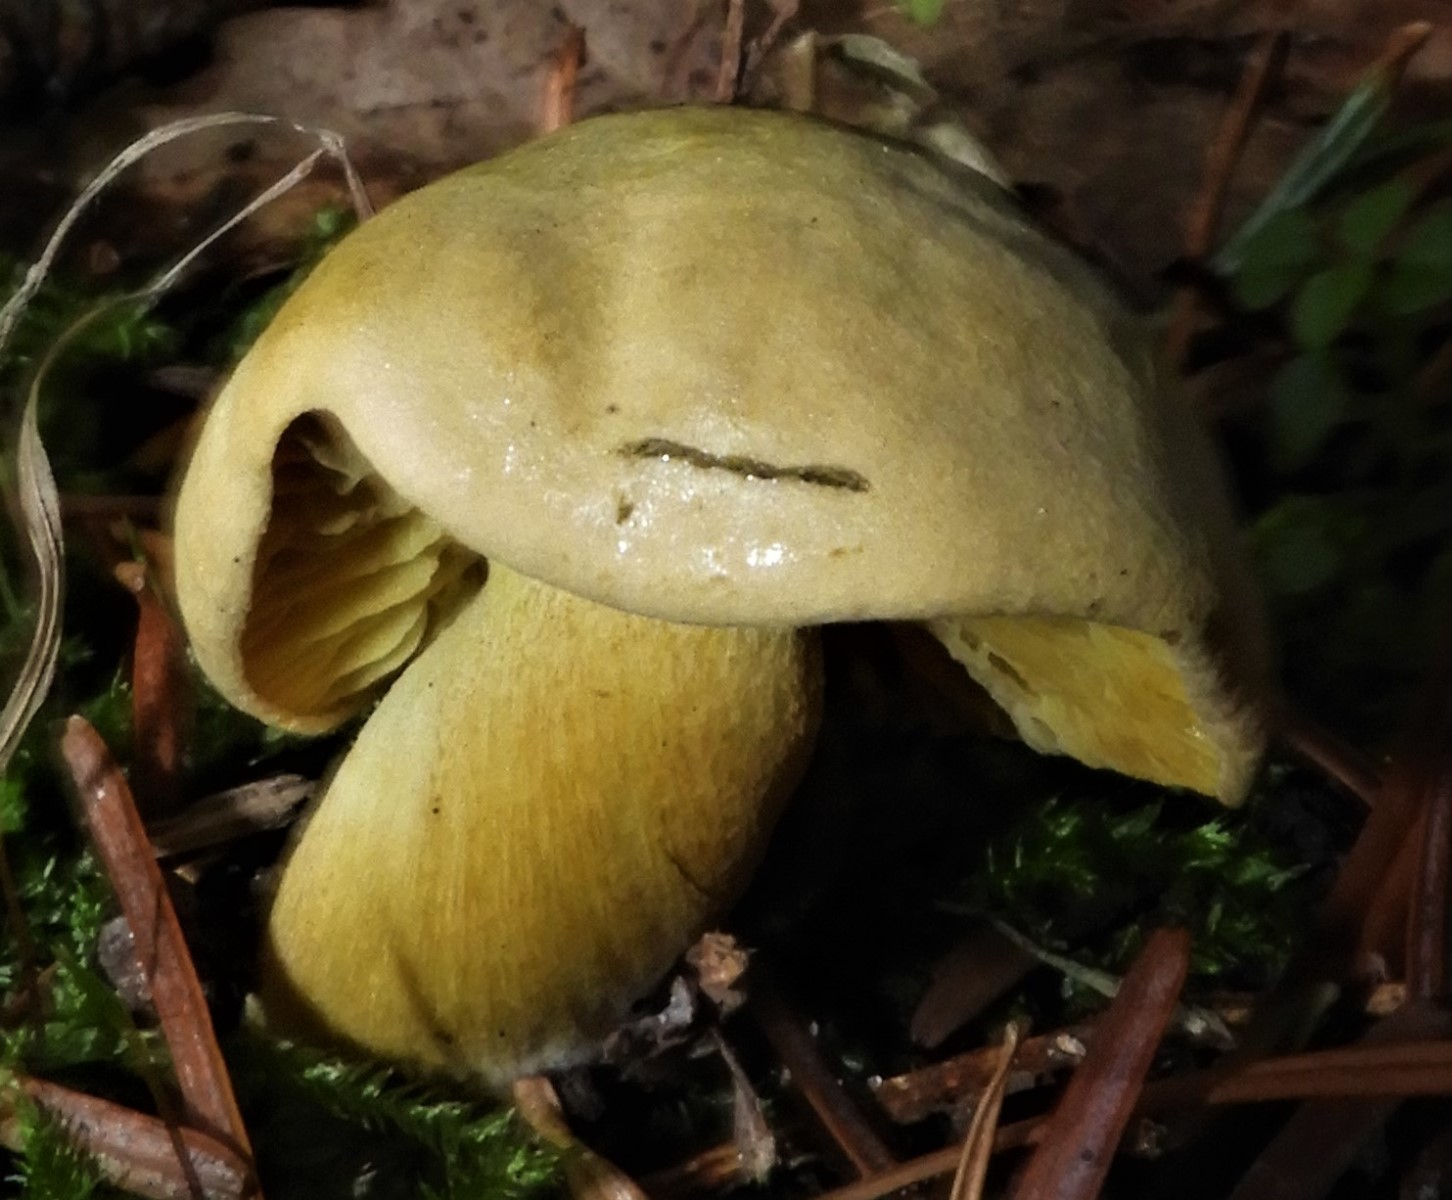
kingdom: Fungi
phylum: Basidiomycota
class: Agaricomycetes
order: Agaricales
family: Tricholomataceae
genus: Tricholoma
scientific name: Tricholoma sulphureum
